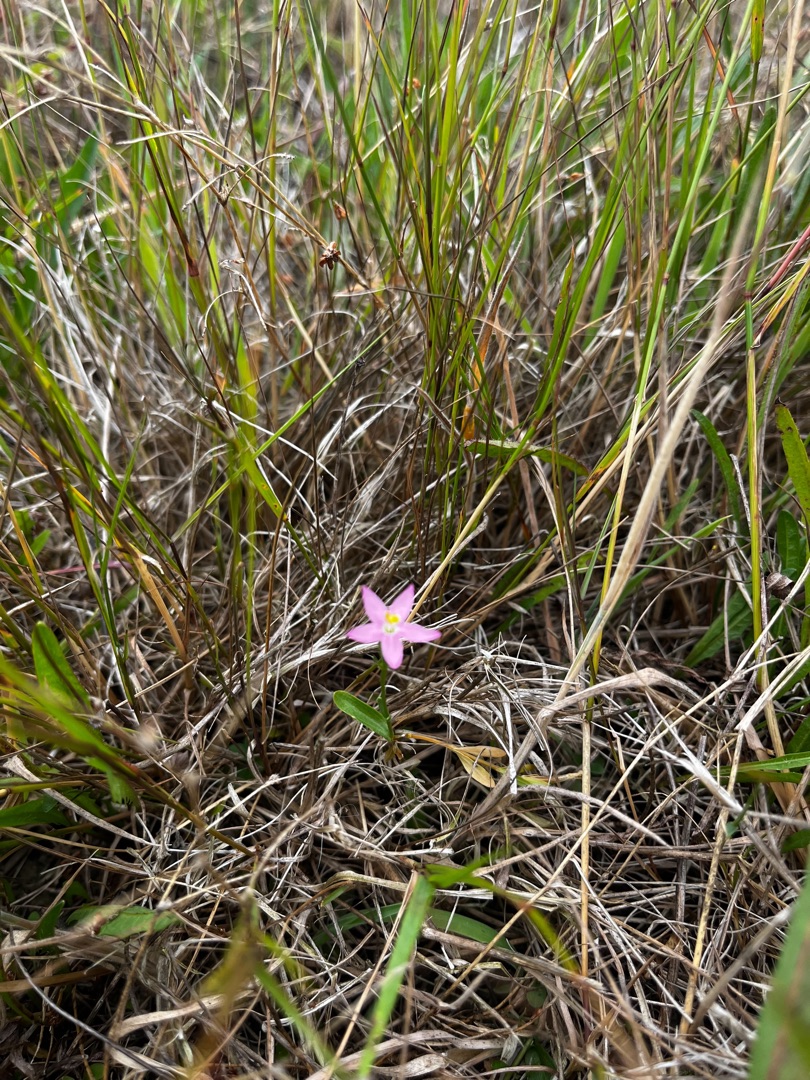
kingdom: Plantae
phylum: Tracheophyta
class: Magnoliopsida
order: Gentianales
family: Gentianaceae
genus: Centaurium
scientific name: Centaurium
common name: Tusindgyldenslægten
